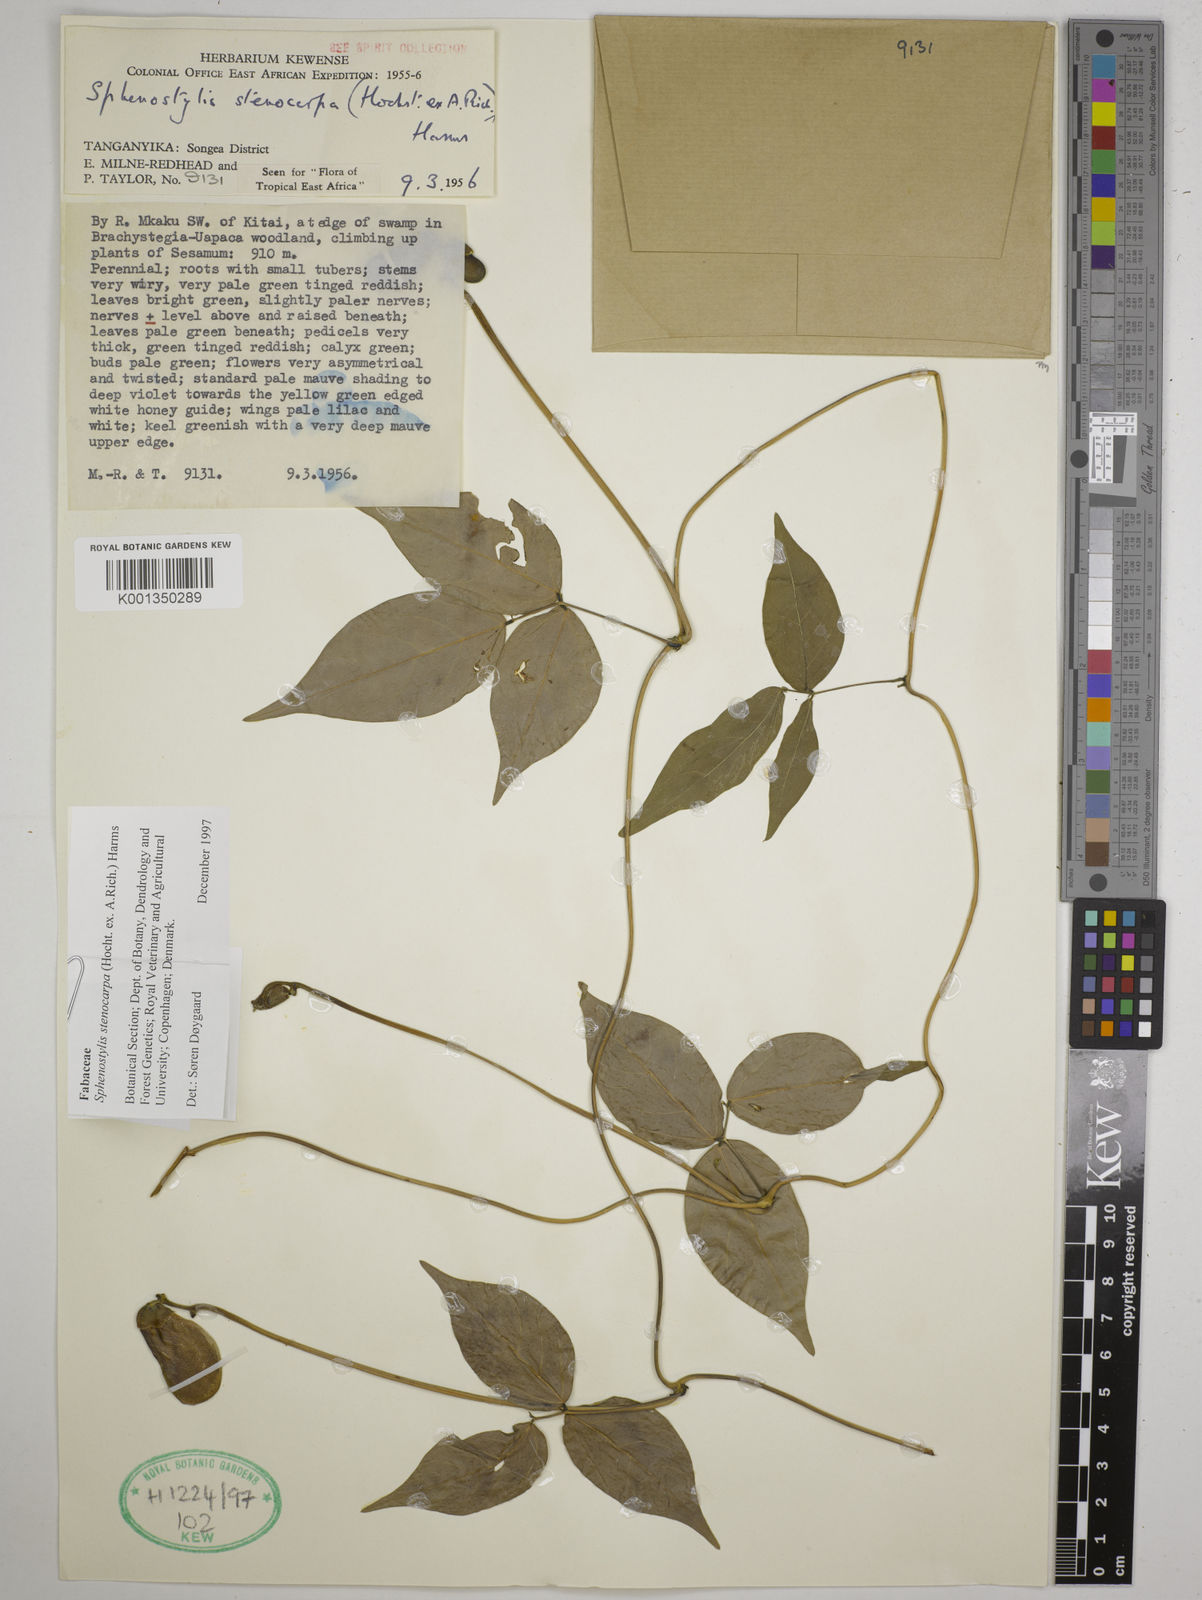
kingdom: Plantae
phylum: Tracheophyta
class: Magnoliopsida
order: Fabales
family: Fabaceae
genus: Sphenostylis
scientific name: Sphenostylis stenocarpa
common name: Yam-pea
